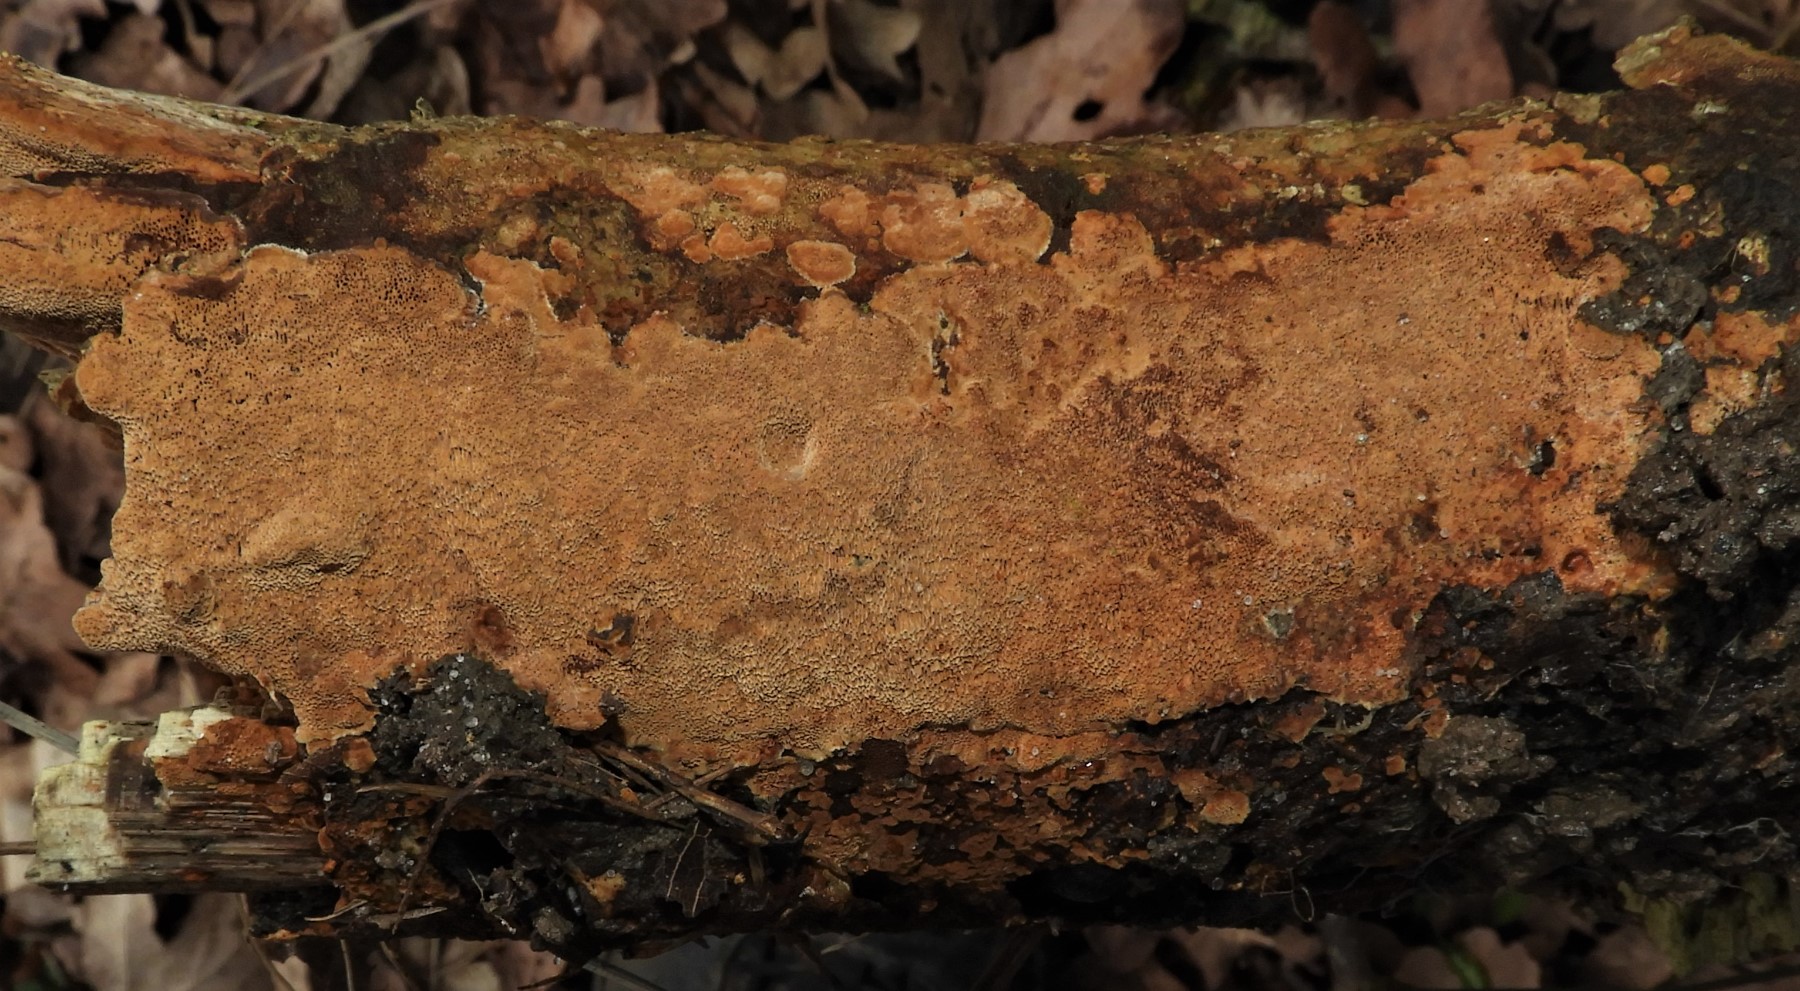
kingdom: Fungi
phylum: Basidiomycota
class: Agaricomycetes
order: Hymenochaetales
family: Hymenochaetaceae
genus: Fuscoporia
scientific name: Fuscoporia ferrea
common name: skorpe-ildporesvamp
